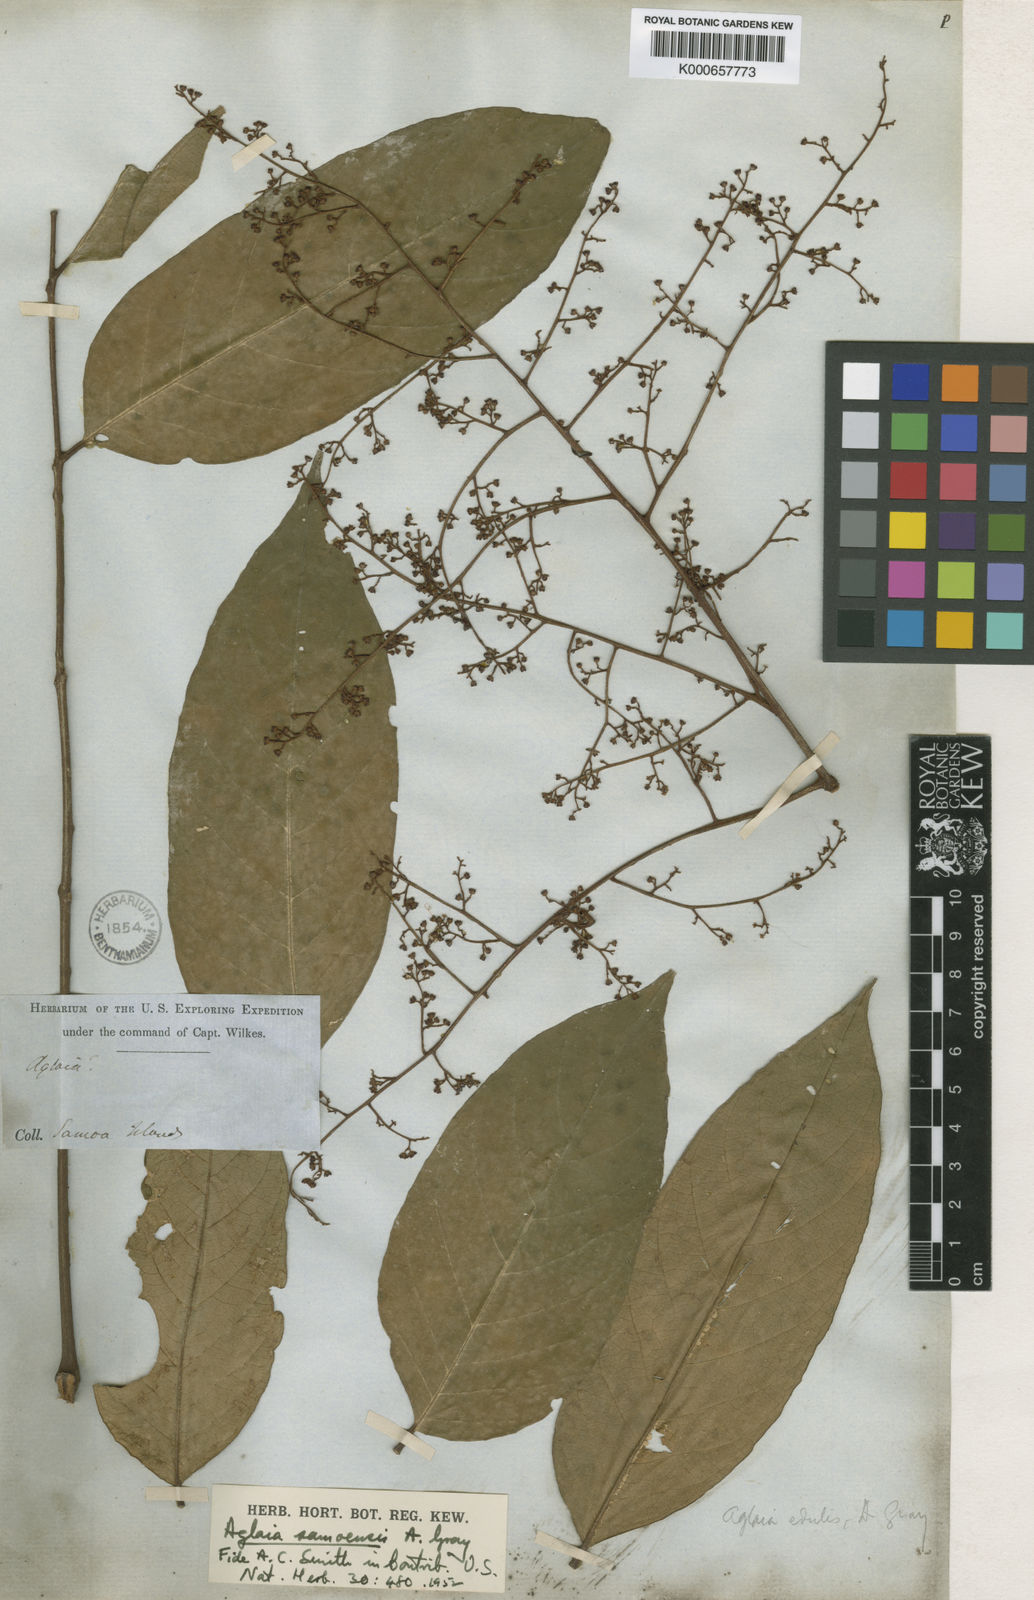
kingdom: Plantae
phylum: Tracheophyta
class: Magnoliopsida
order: Sapindales
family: Meliaceae
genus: Aglaia
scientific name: Aglaia samoensis
